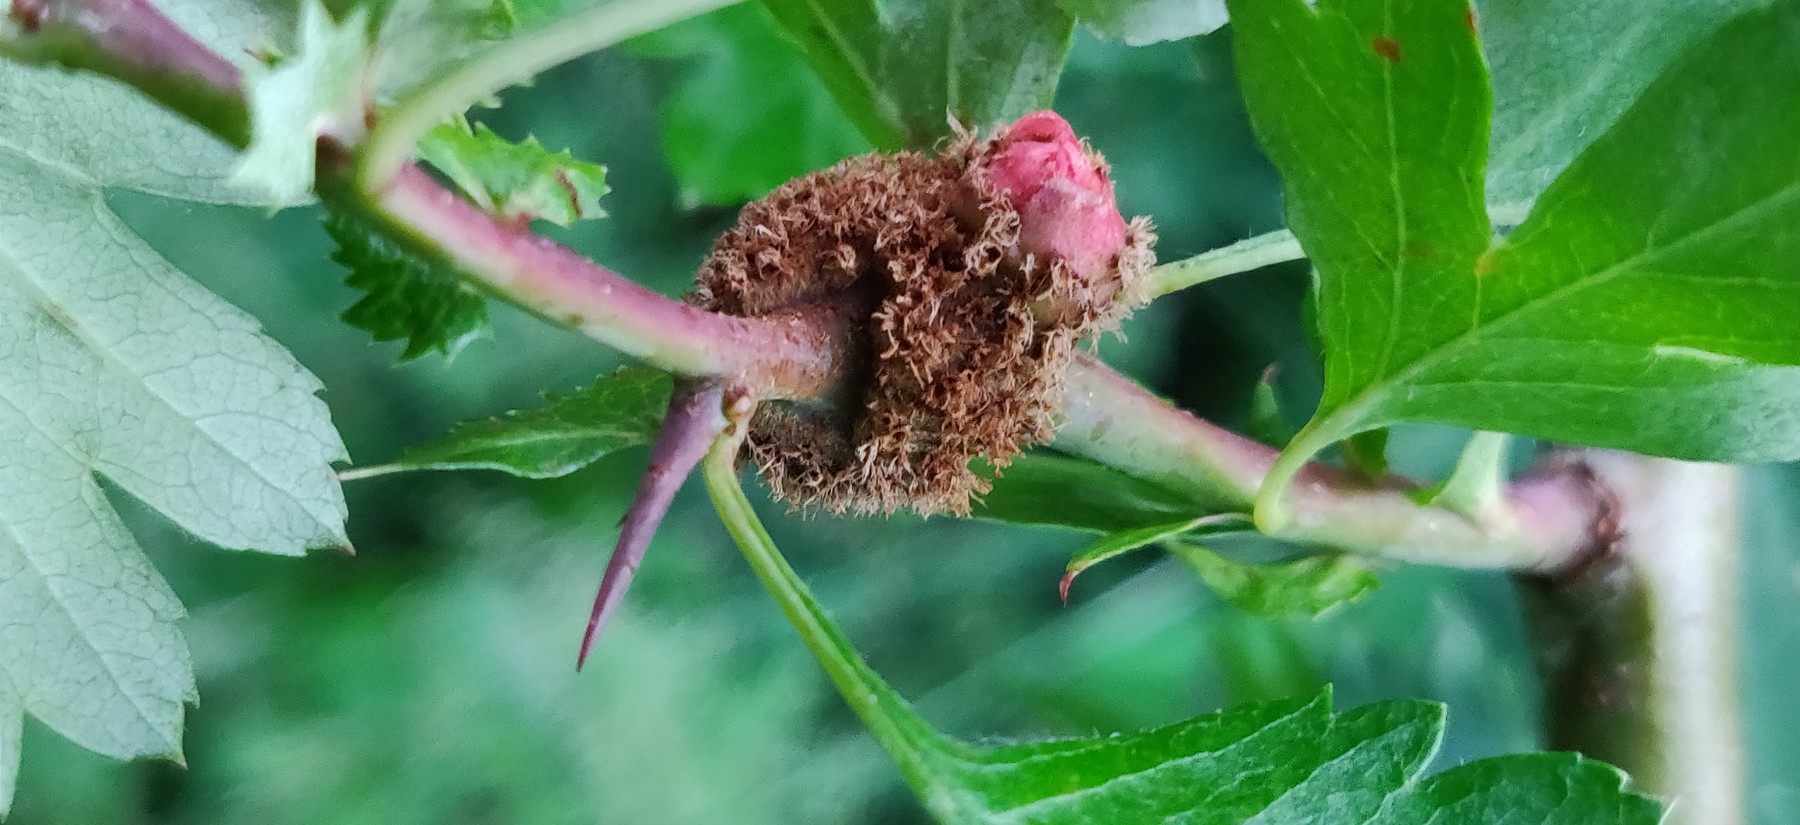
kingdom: Fungi
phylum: Basidiomycota
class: Pucciniomycetes
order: Pucciniales
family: Gymnosporangiaceae
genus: Gymnosporangium
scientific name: Gymnosporangium
